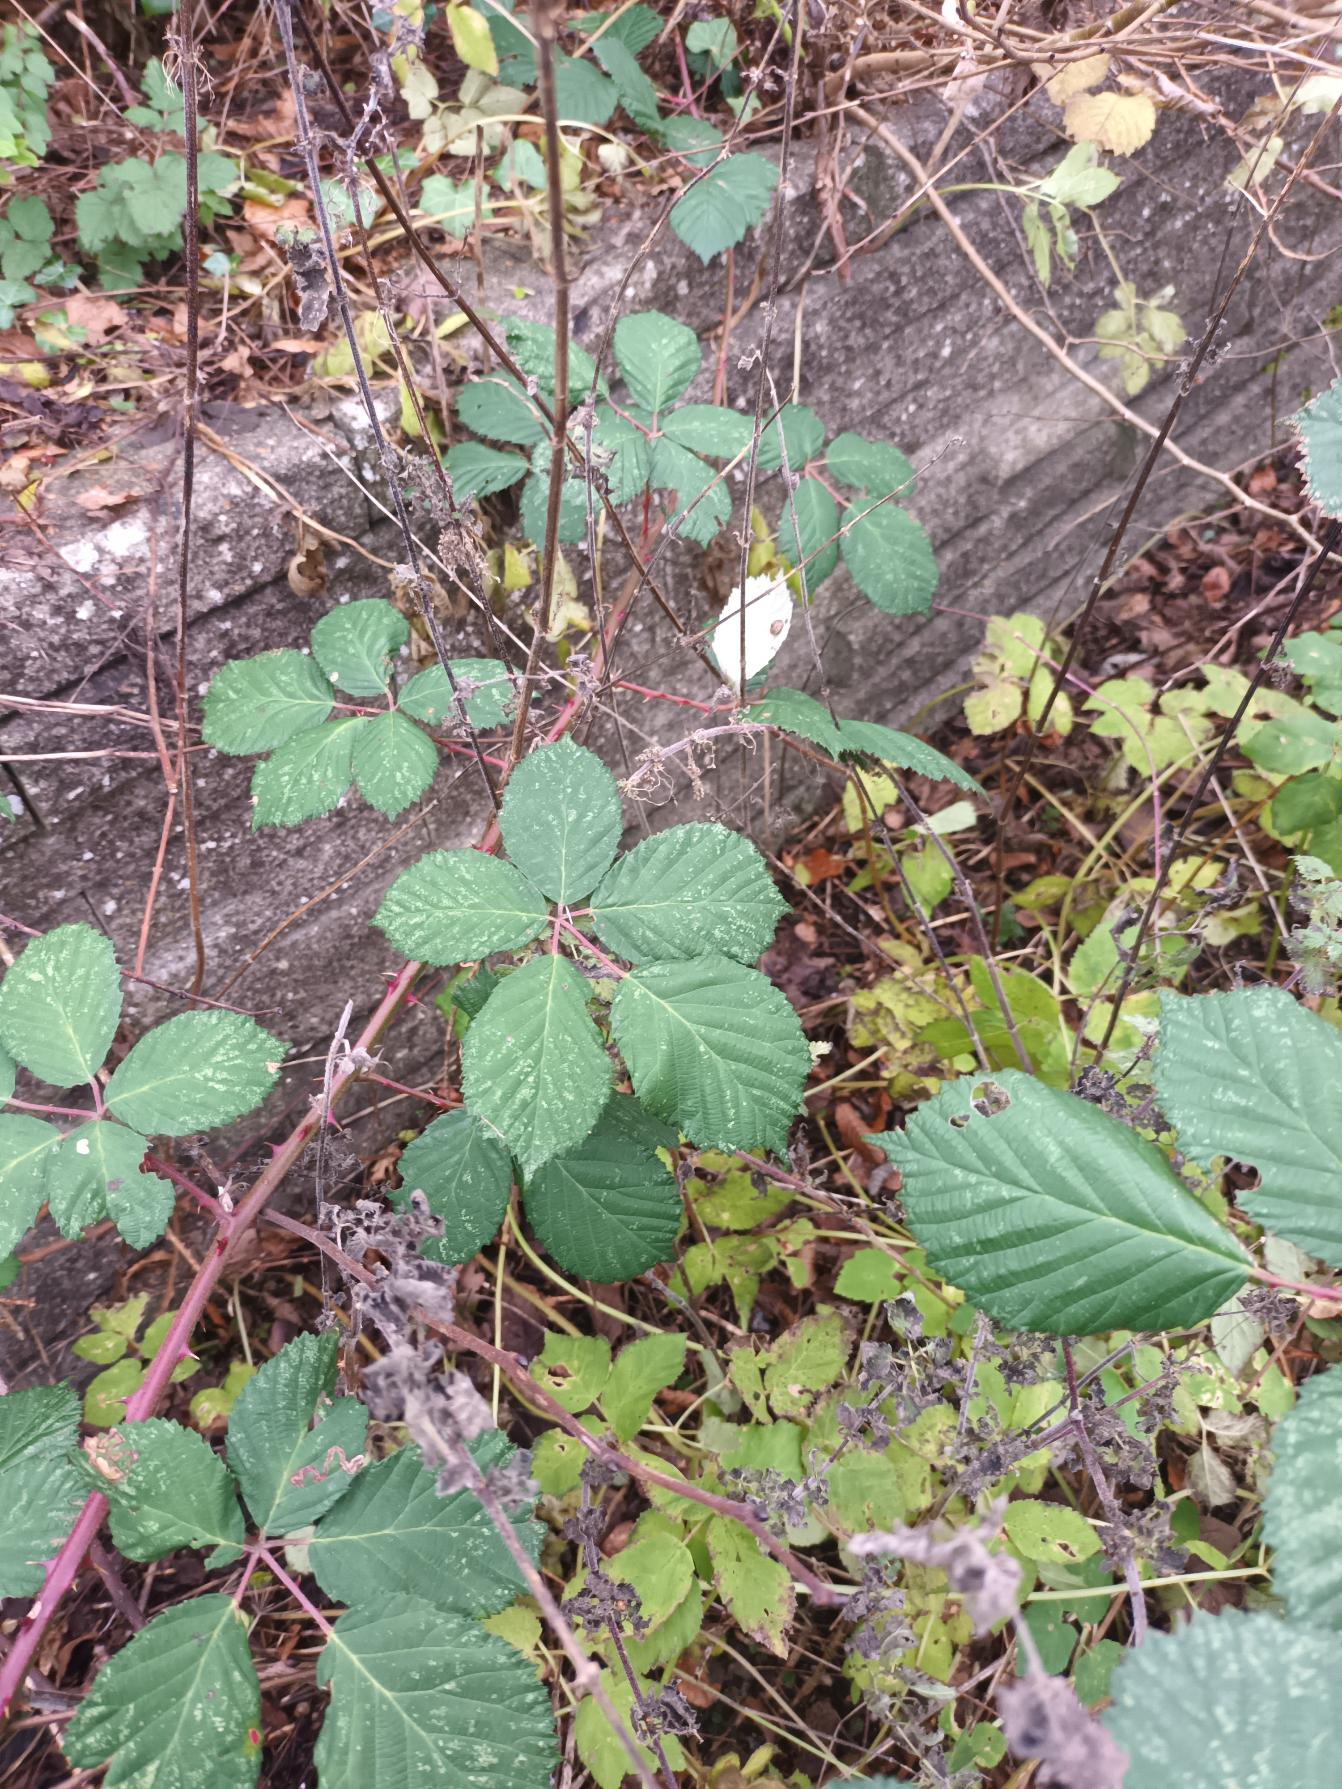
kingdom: Plantae
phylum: Tracheophyta
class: Magnoliopsida
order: Rosales
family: Rosaceae
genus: Rubus
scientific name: Rubus armeniacus
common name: Armensk brombær
